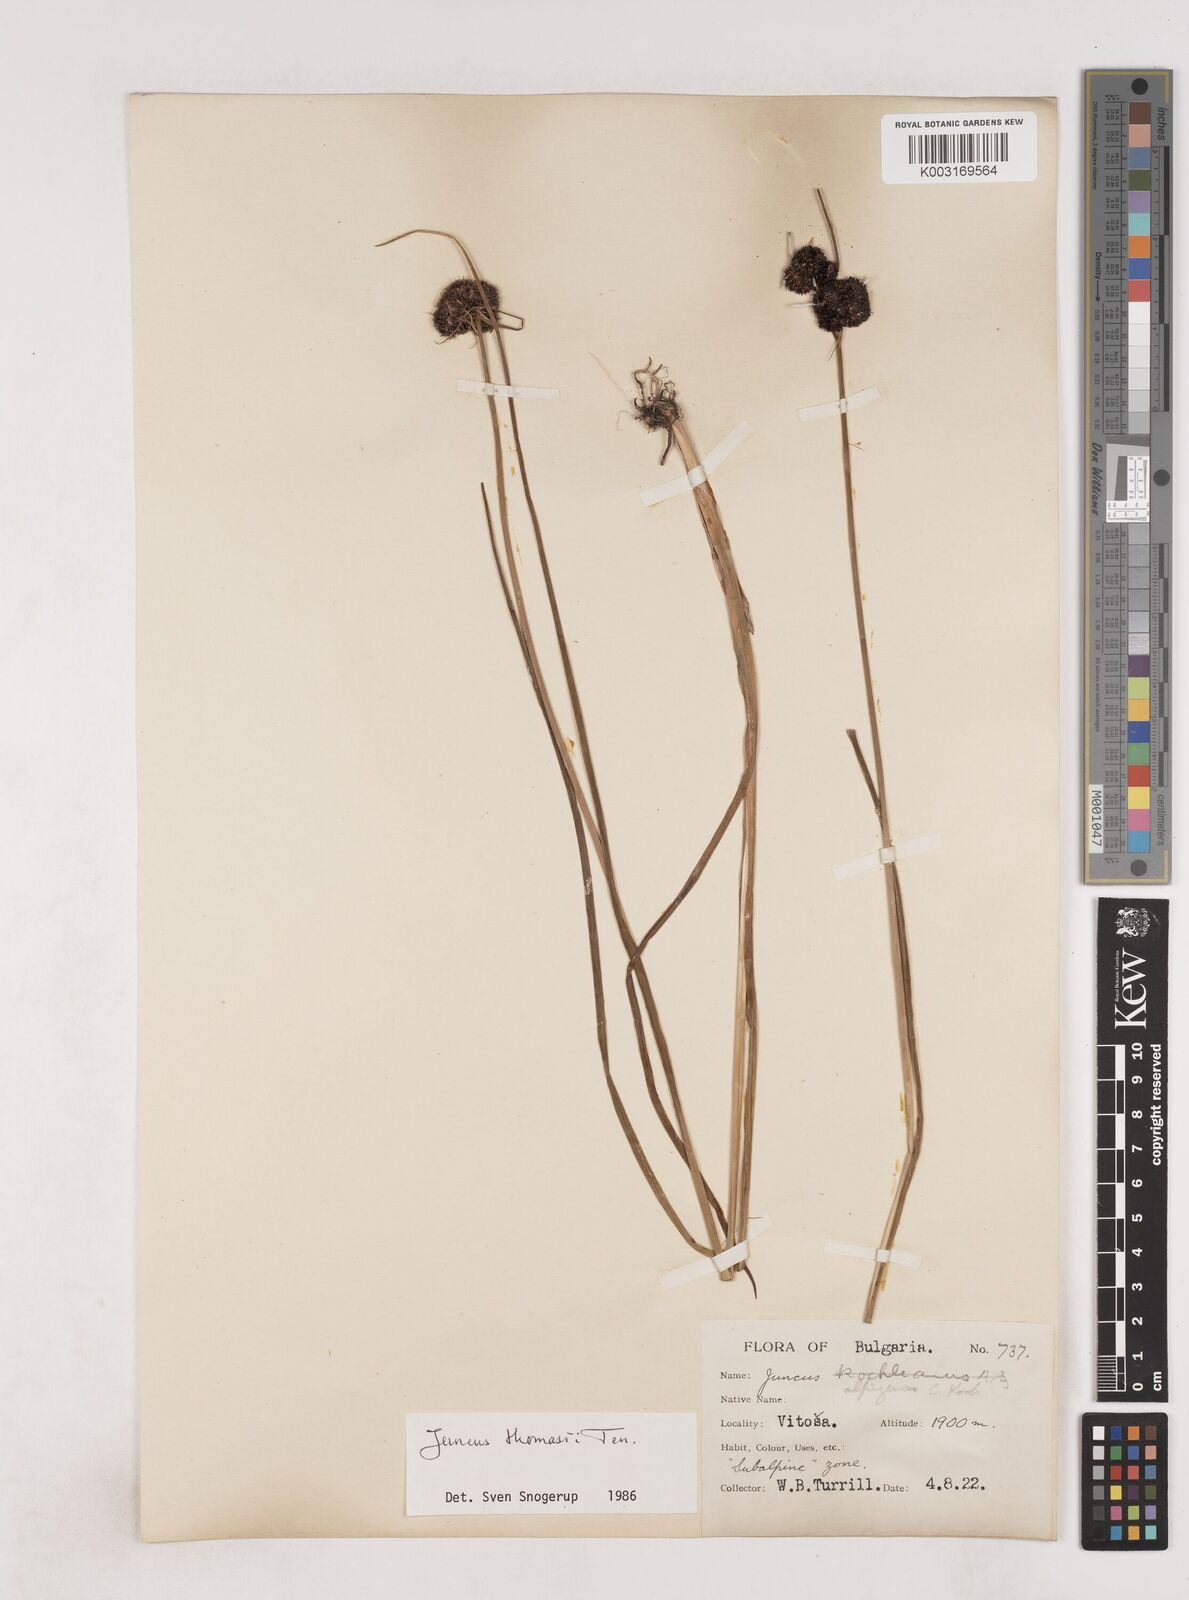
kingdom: Plantae
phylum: Tracheophyta
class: Liliopsida
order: Poales
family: Juncaceae
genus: Juncus
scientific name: Juncus alpigenus
